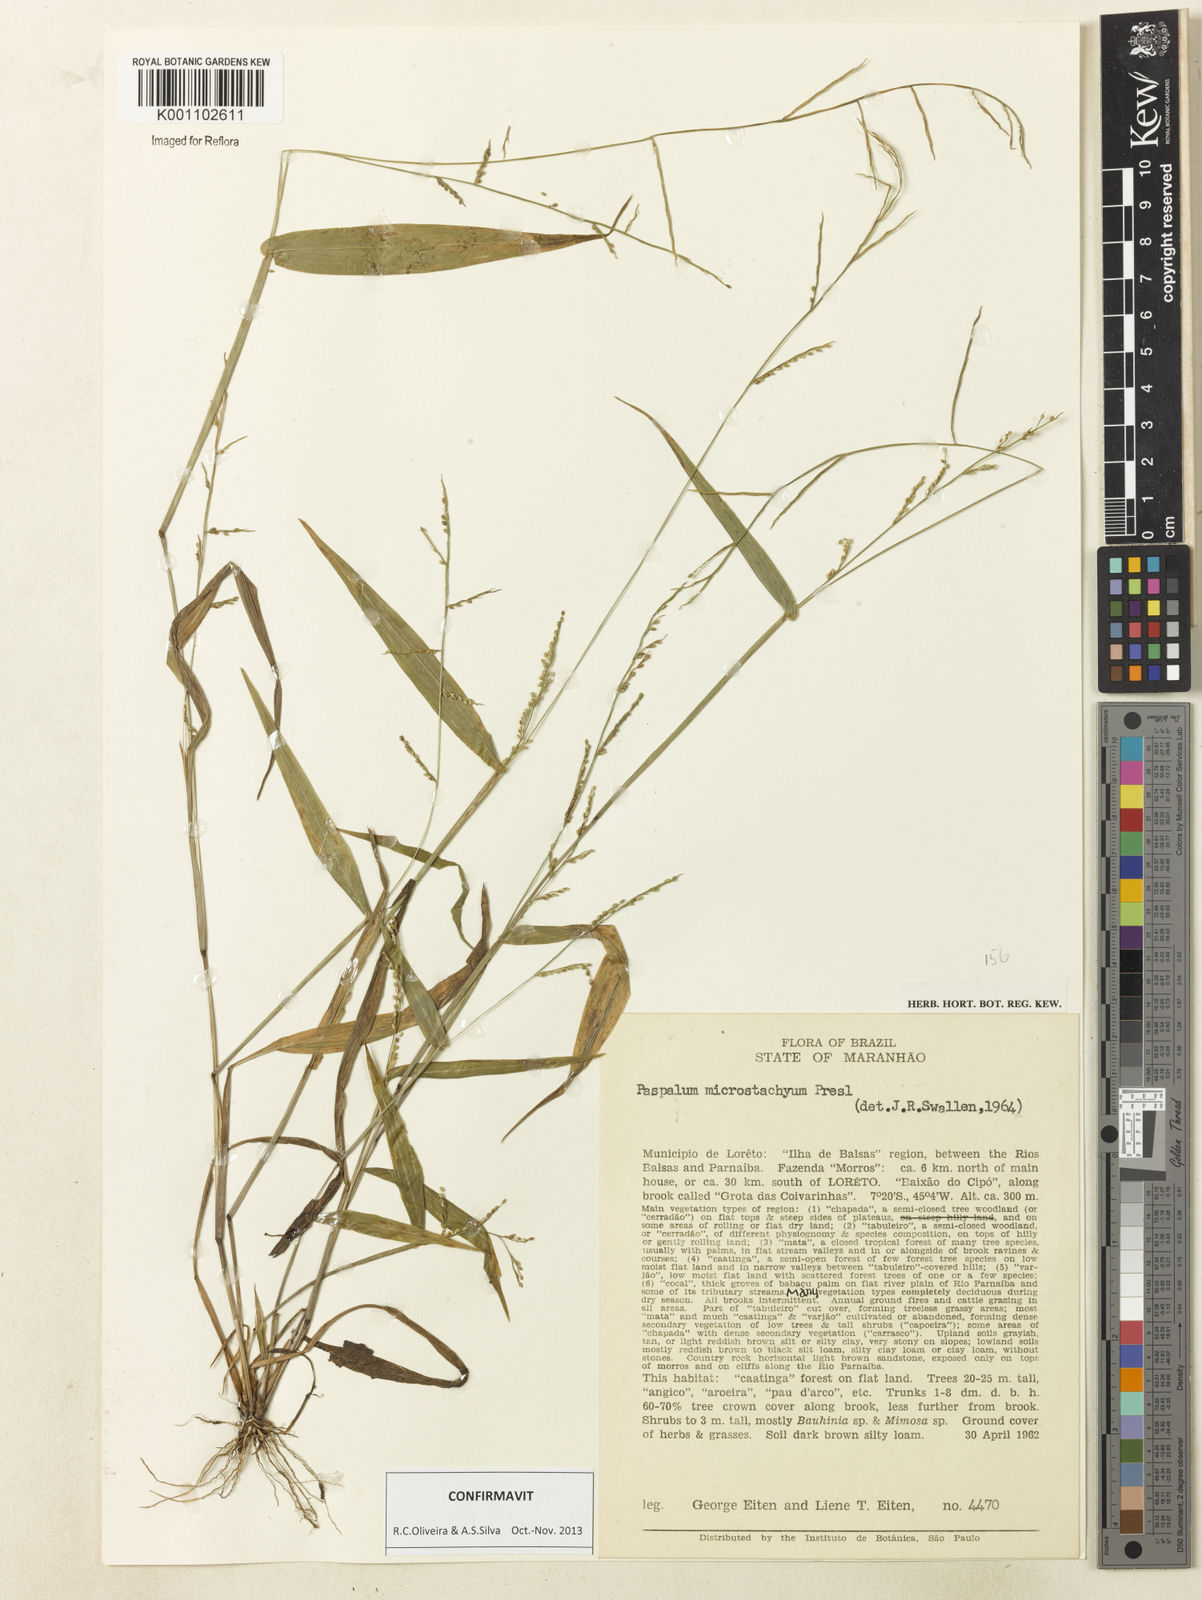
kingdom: Plantae
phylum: Tracheophyta
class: Liliopsida
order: Poales
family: Poaceae
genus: Paspalum
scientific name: Paspalum microstachyum
